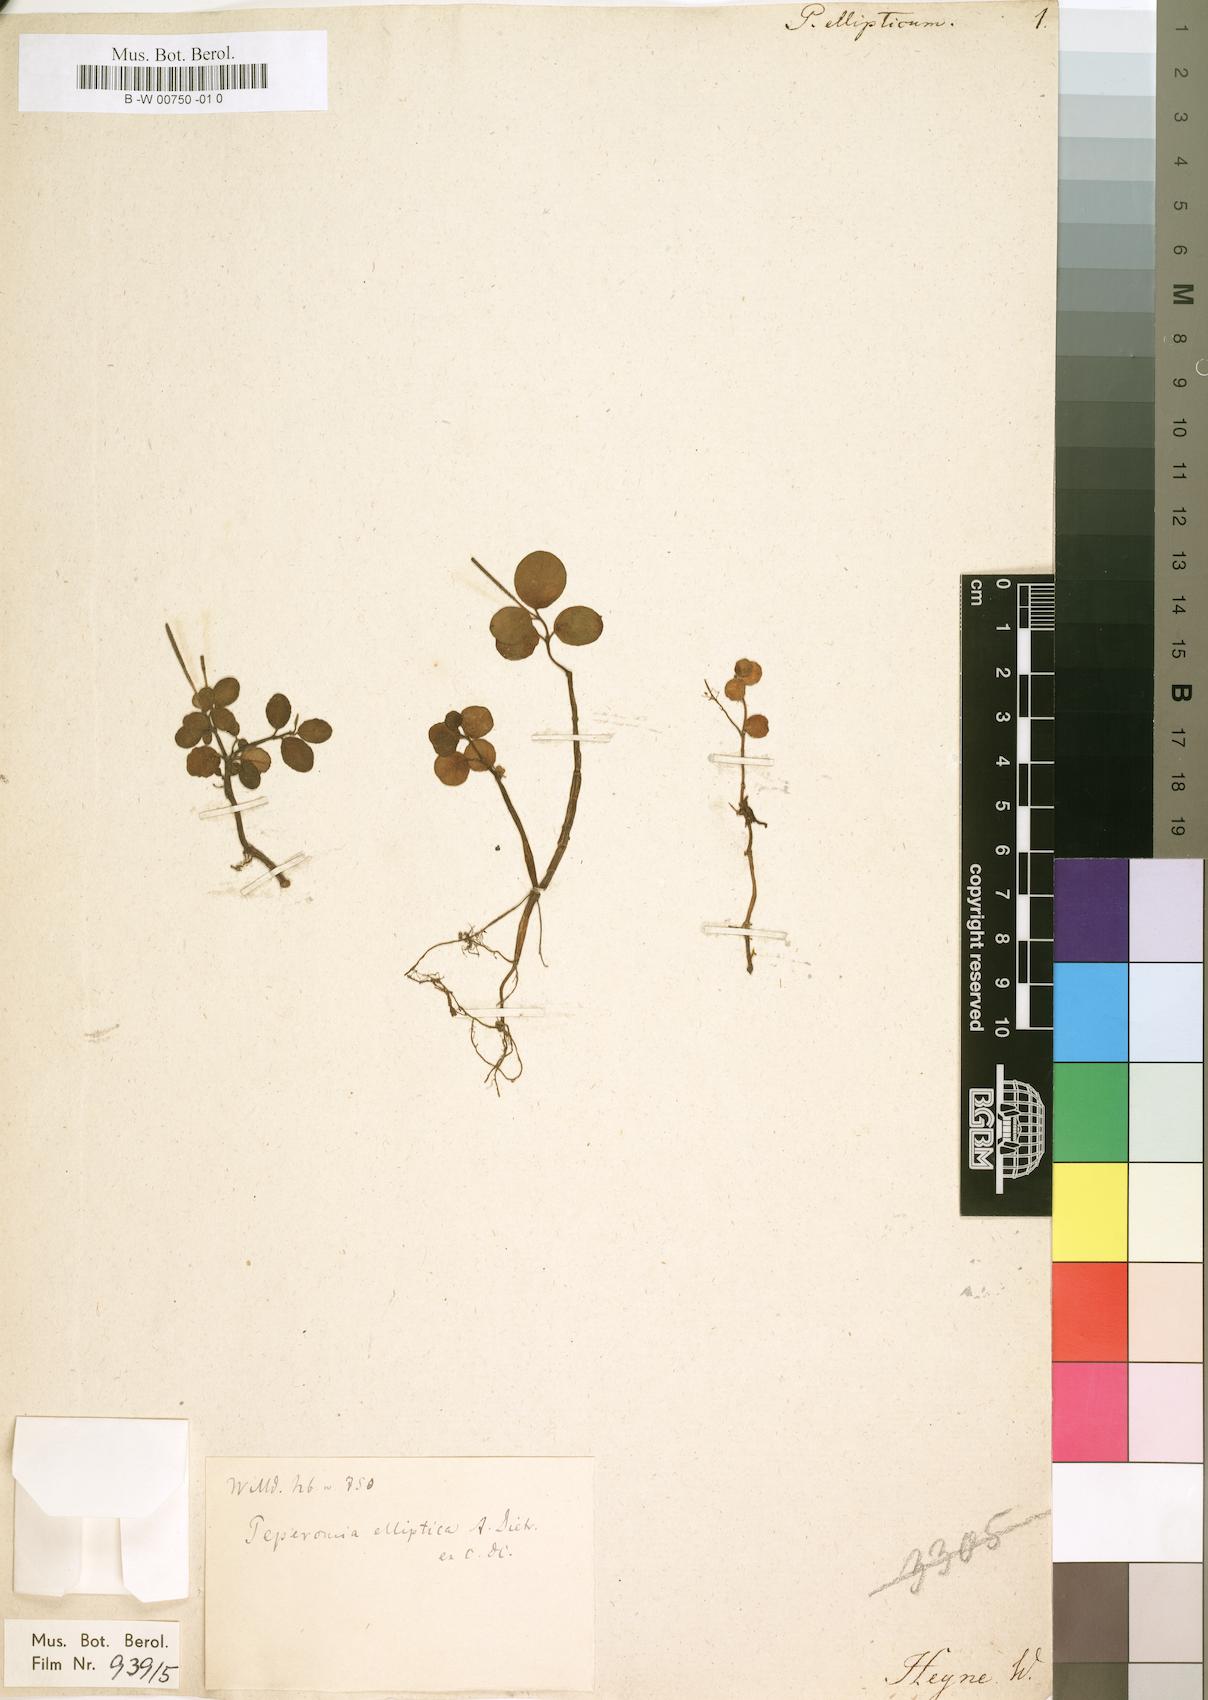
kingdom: Plantae
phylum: Tracheophyta
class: Magnoliopsida
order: Piperales
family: Piperaceae
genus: Peperomia
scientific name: Peperomia elliptica
